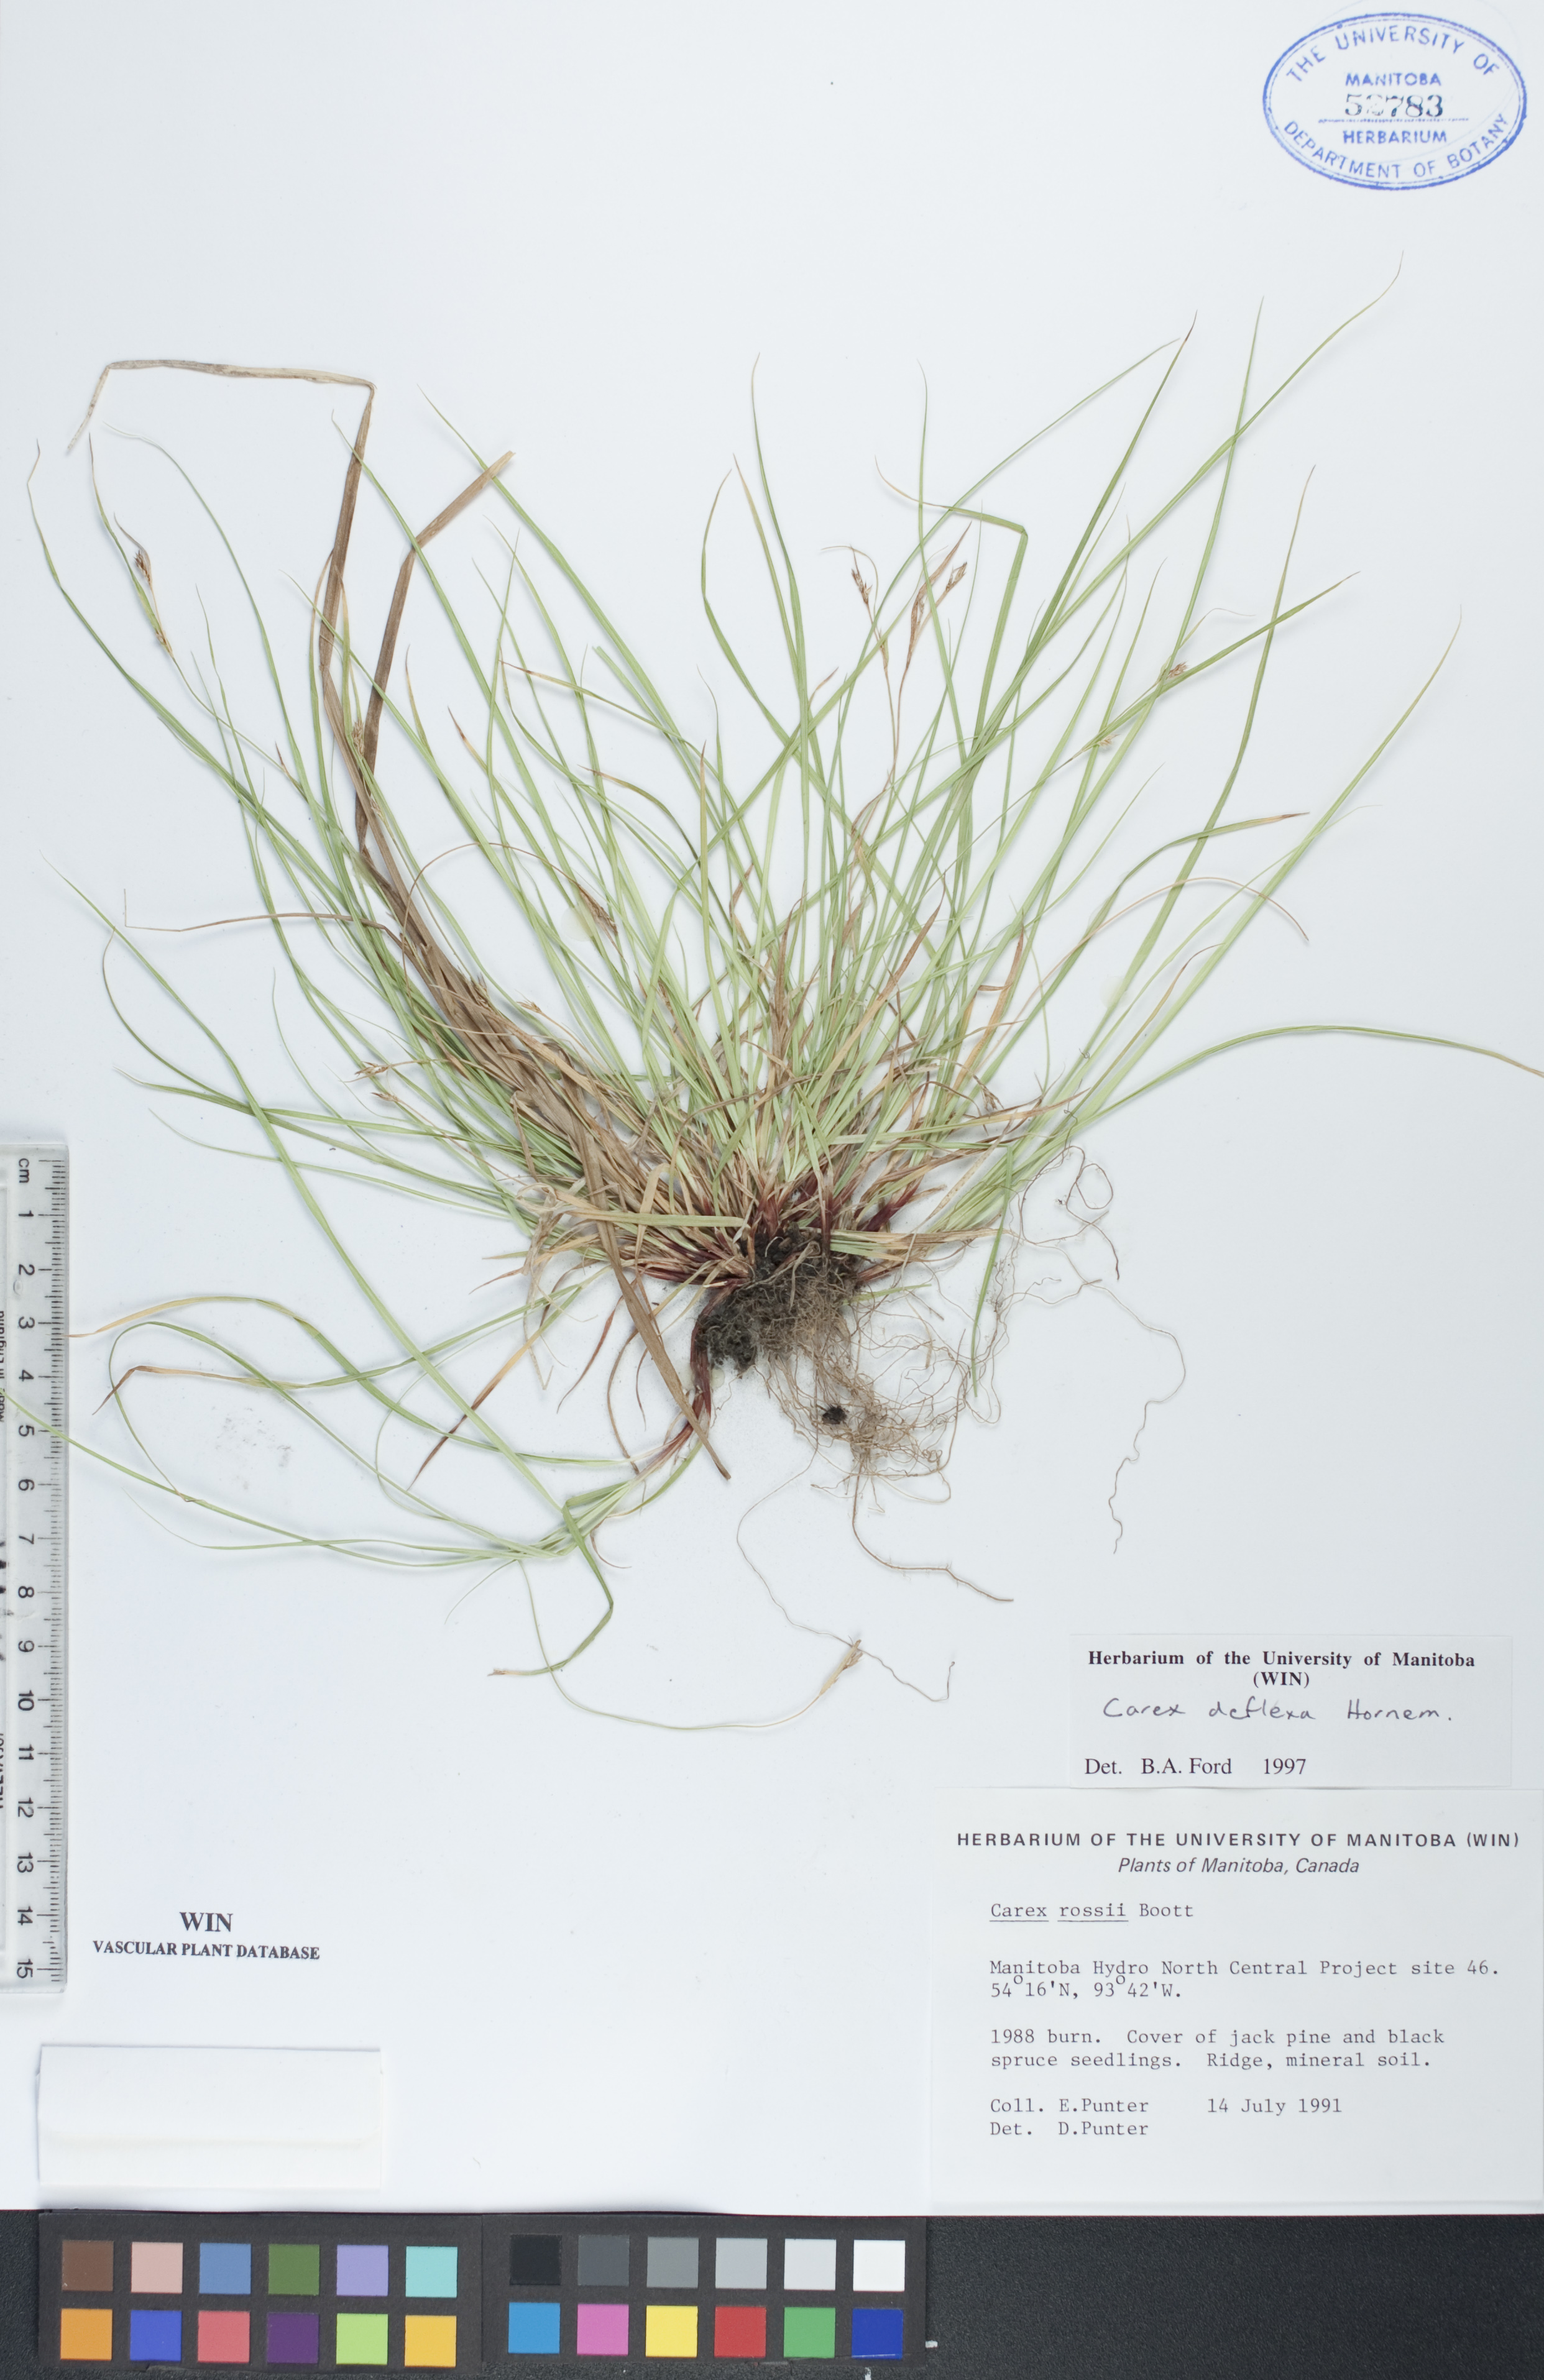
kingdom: Plantae
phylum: Tracheophyta
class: Liliopsida
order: Poales
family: Cyperaceae
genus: Carex
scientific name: Carex deflexa
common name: Bent northern sedge
